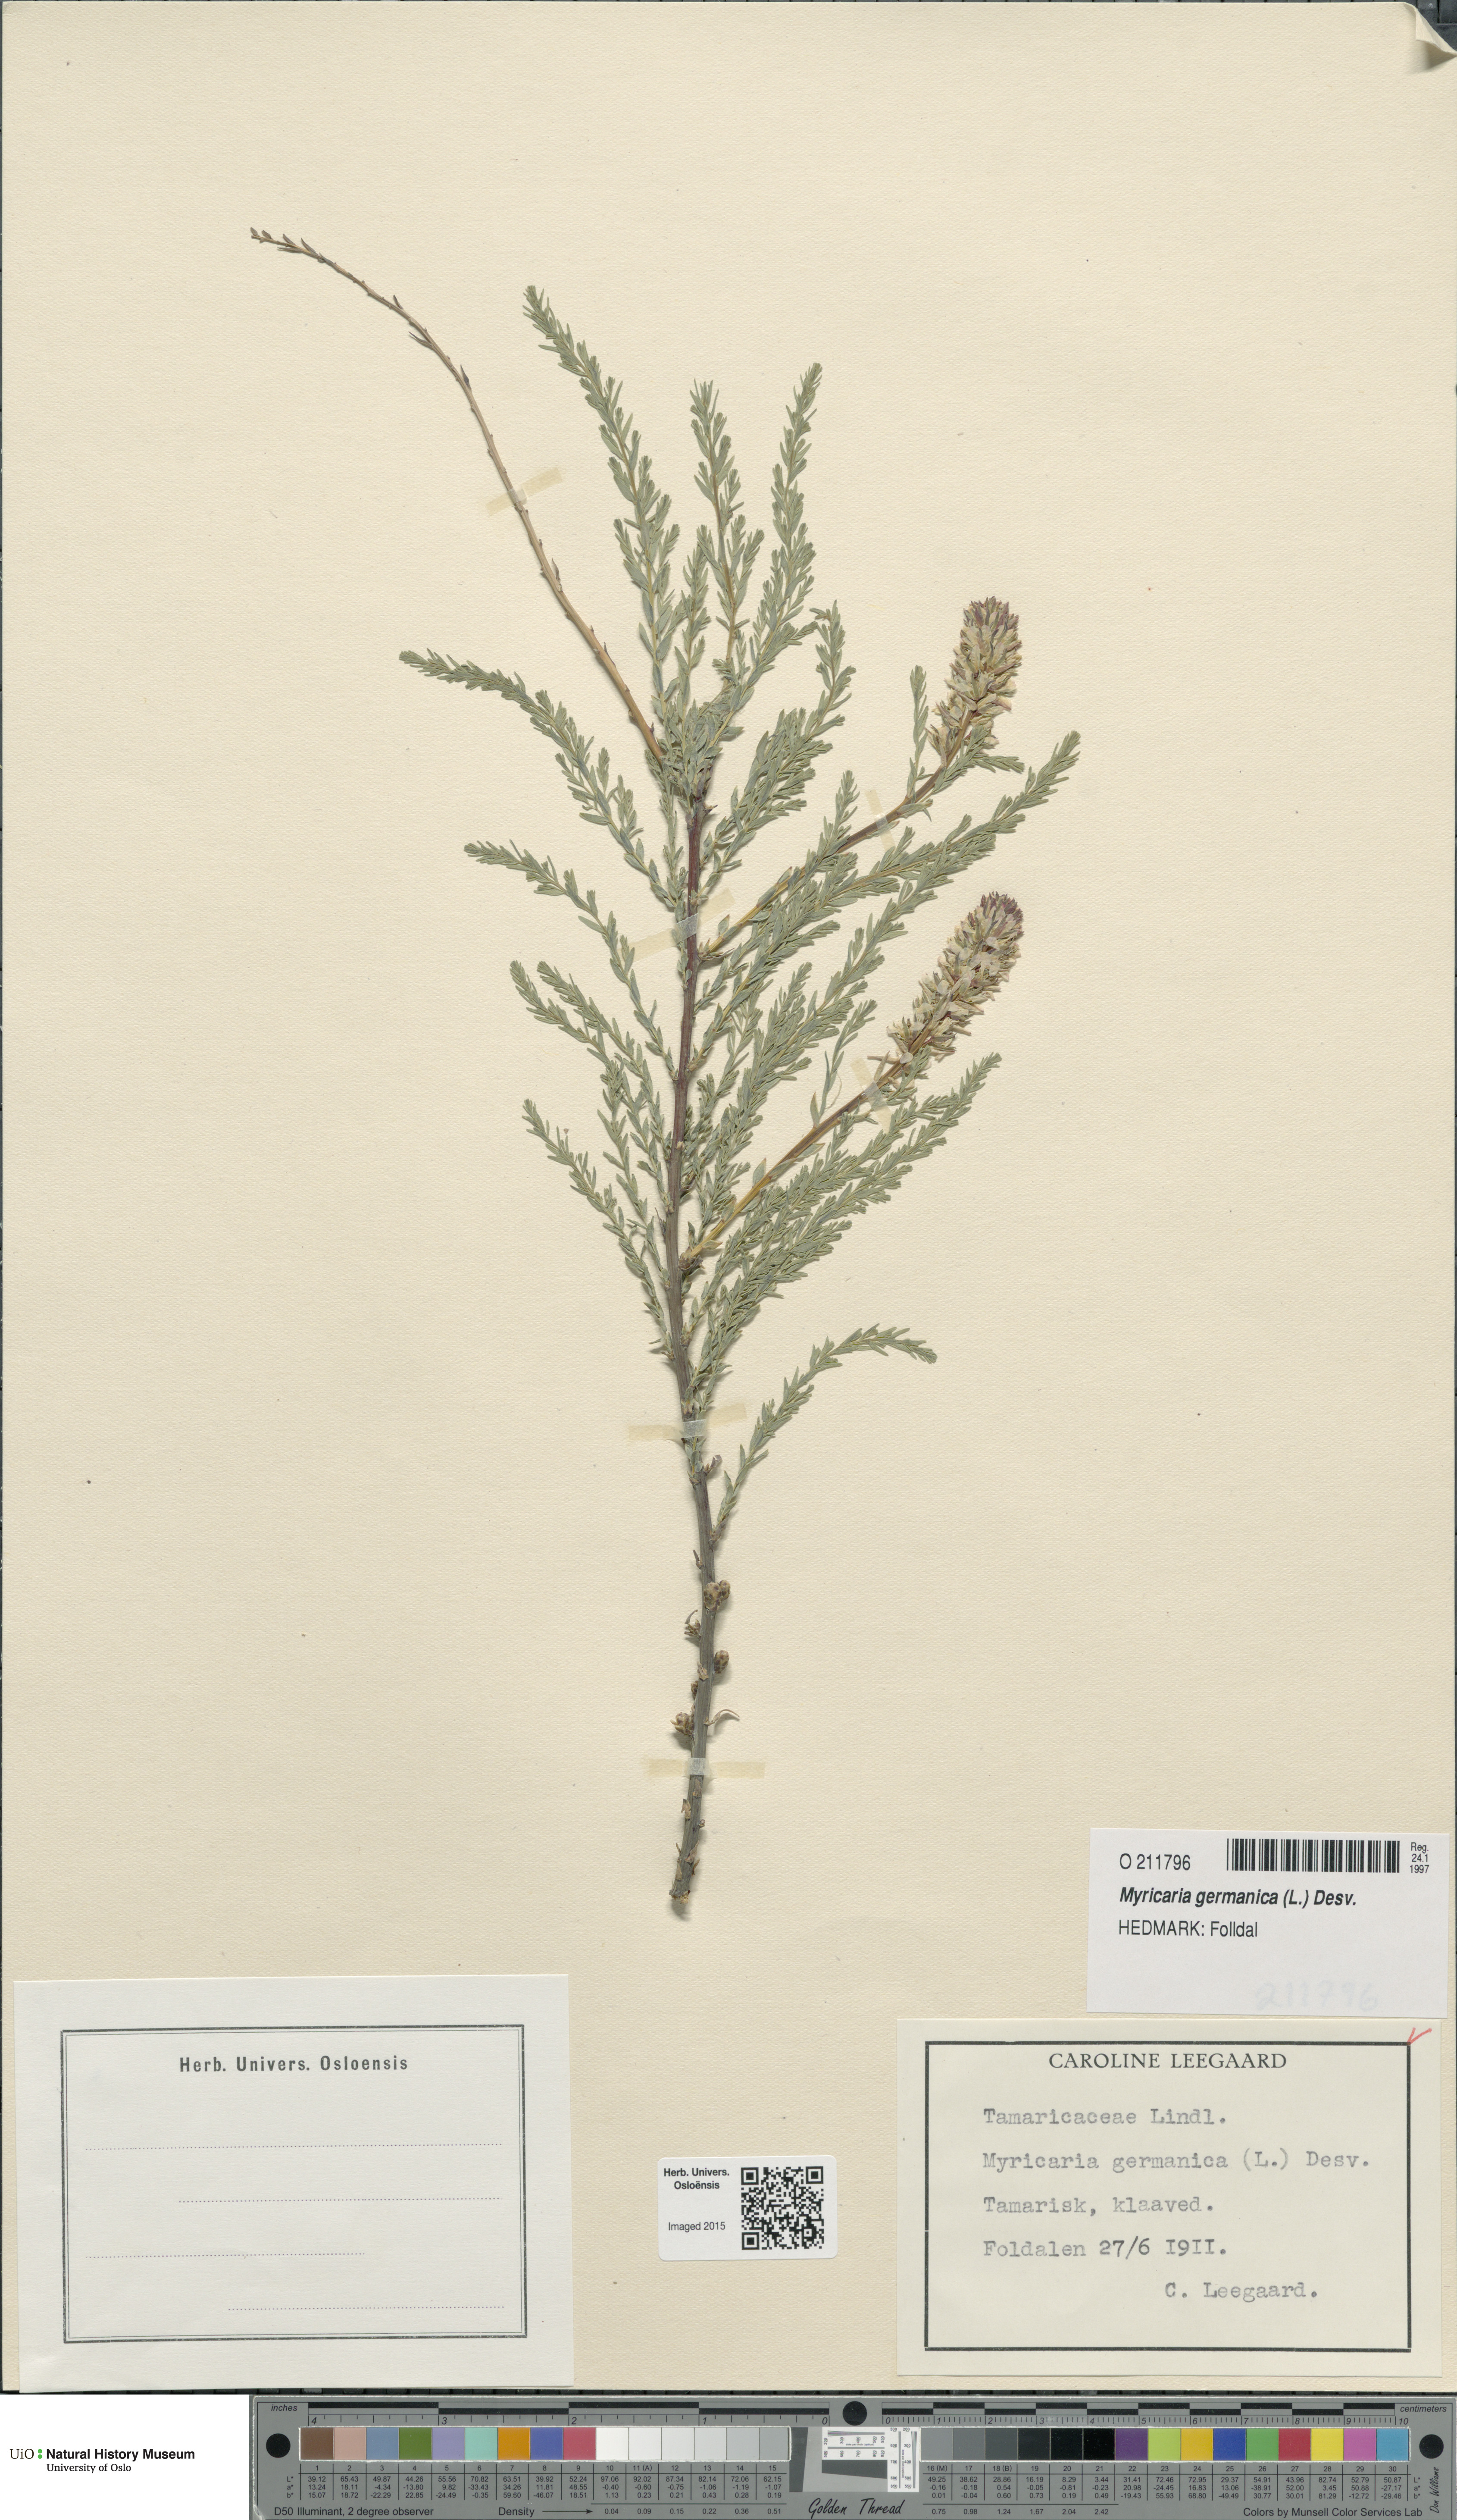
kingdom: Plantae
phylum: Tracheophyta
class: Magnoliopsida
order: Caryophyllales
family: Tamaricaceae
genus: Myricaria
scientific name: Myricaria germanica
